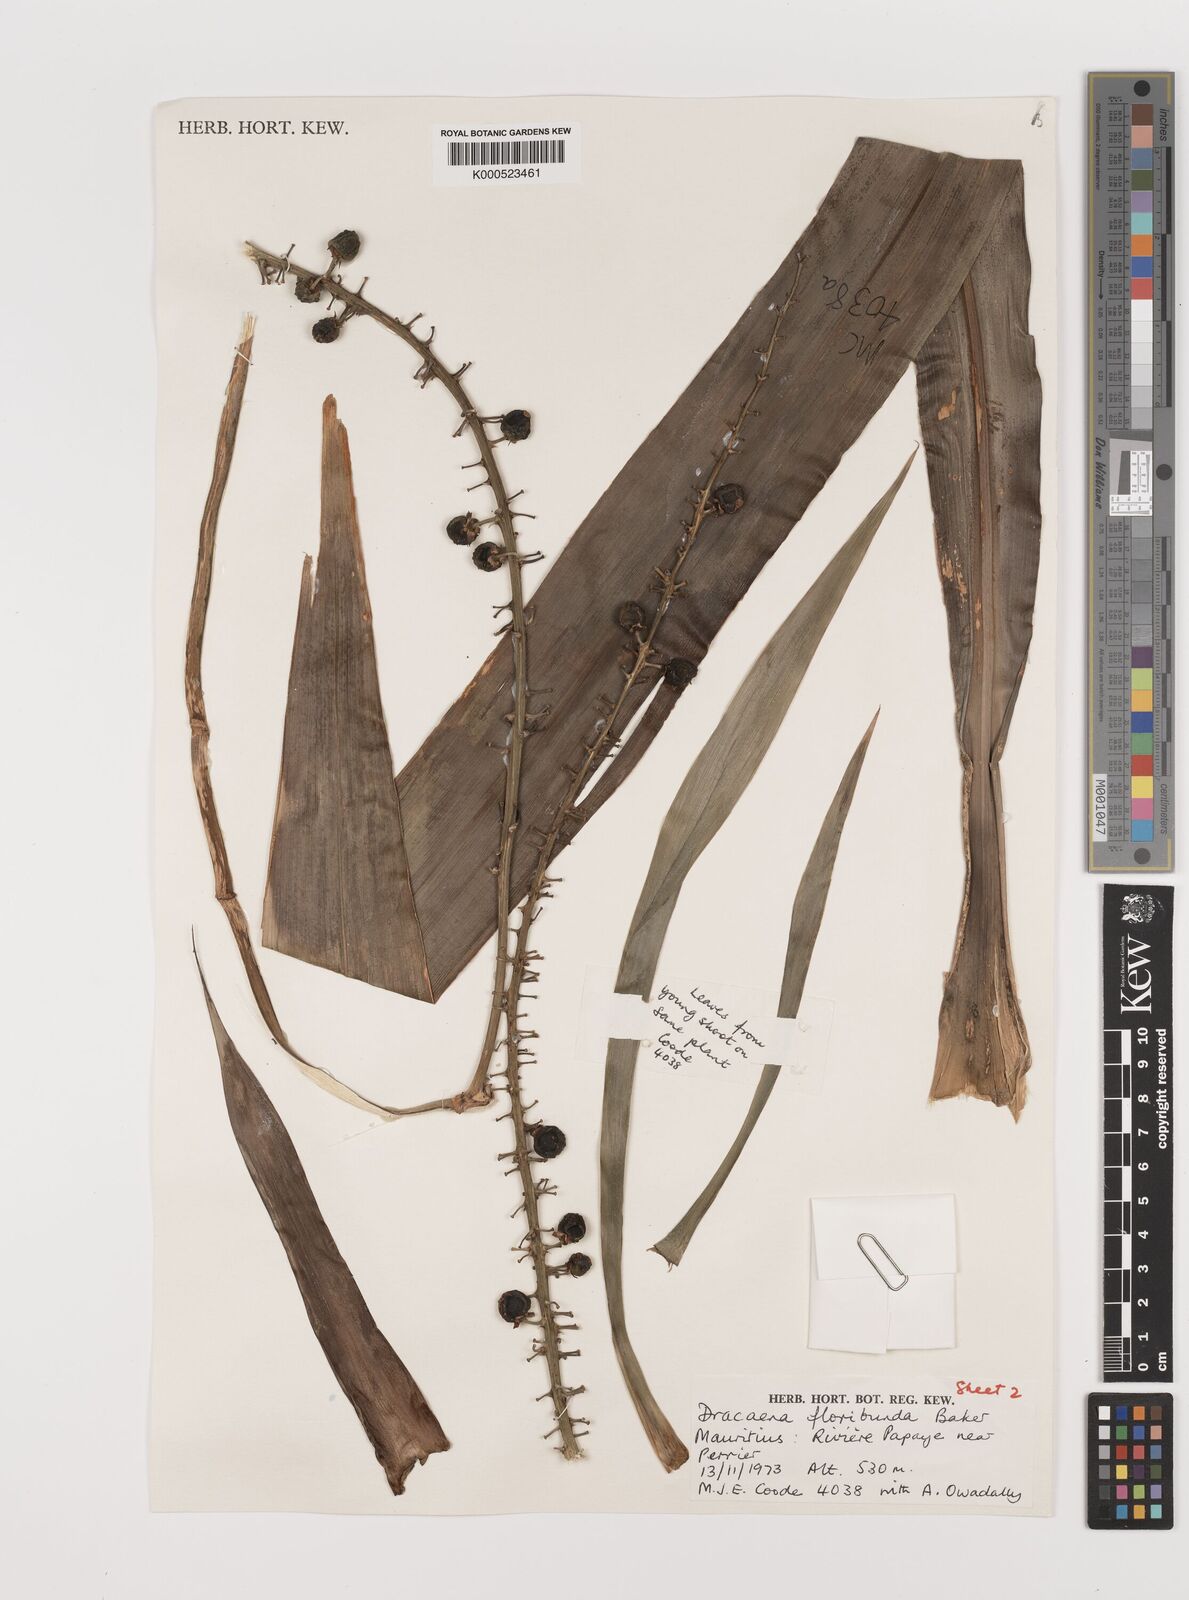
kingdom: Plantae
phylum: Tracheophyta
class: Liliopsida
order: Asparagales
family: Asparagaceae
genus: Dracaena
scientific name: Dracaena floribunda
